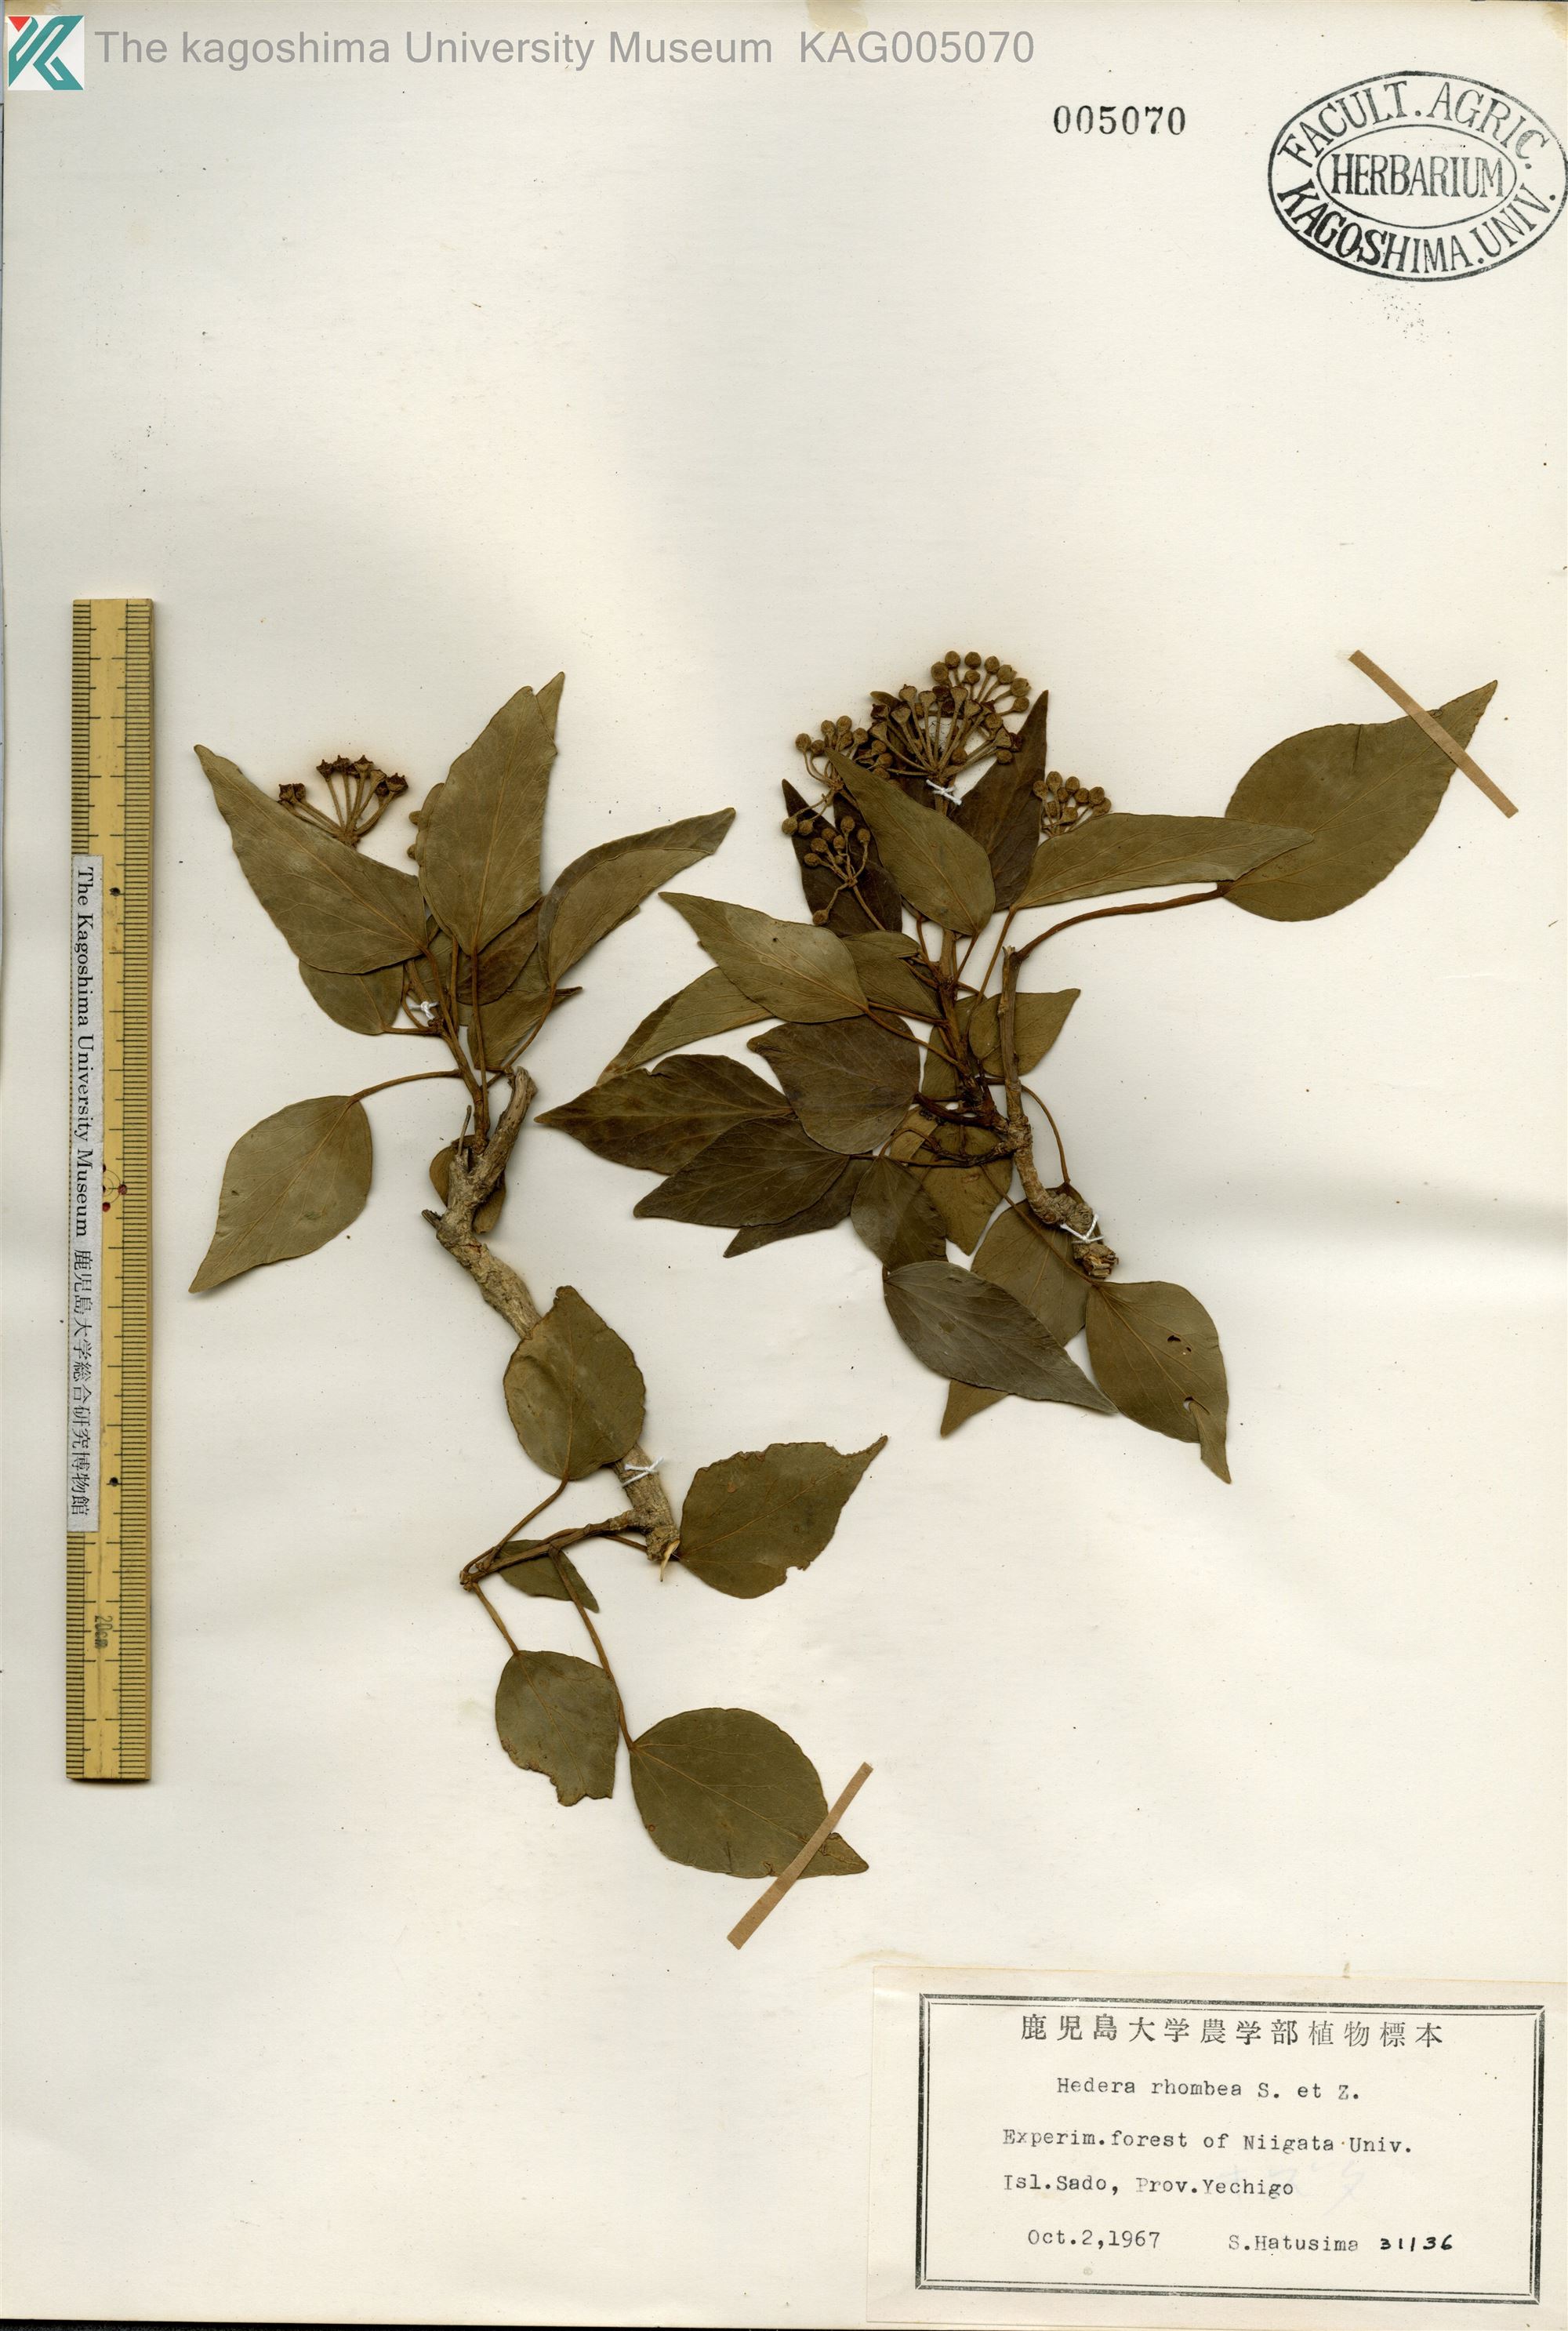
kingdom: Plantae
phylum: Tracheophyta
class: Magnoliopsida
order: Apiales
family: Araliaceae
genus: Hedera
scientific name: Hedera rhombea
